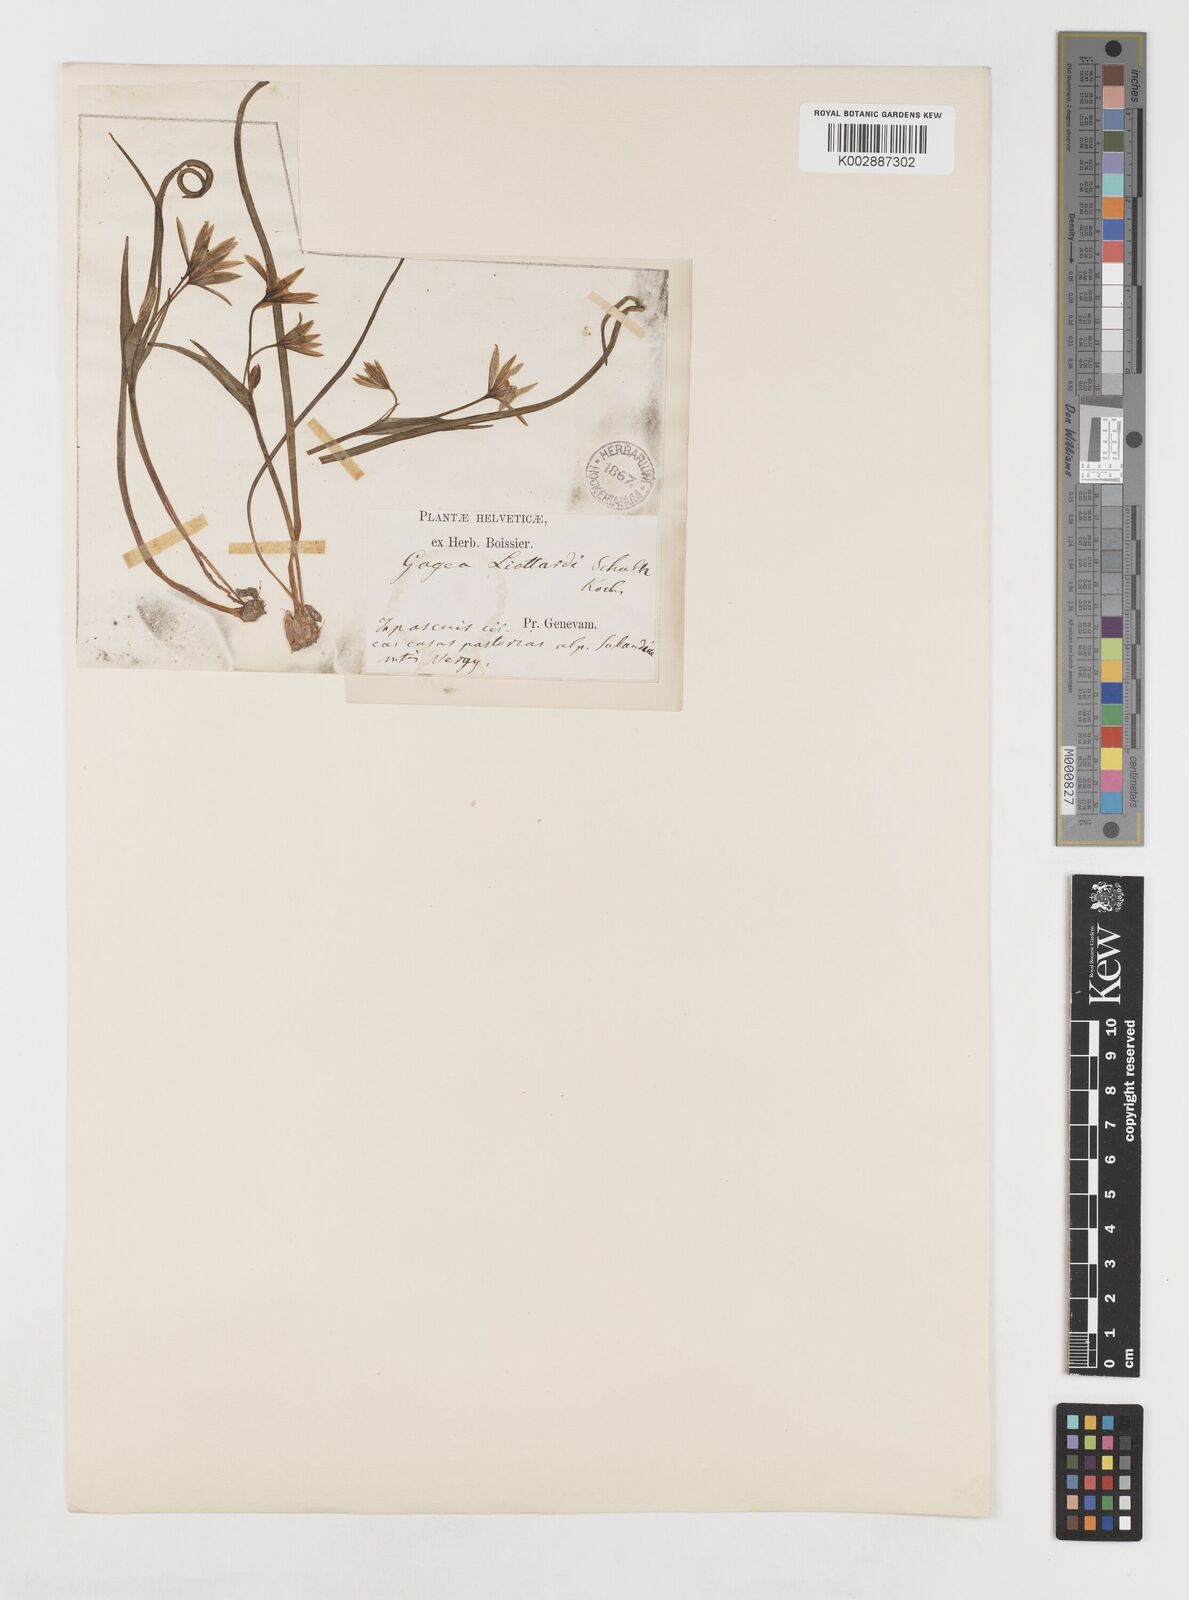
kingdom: Plantae
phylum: Tracheophyta
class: Liliopsida
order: Liliales
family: Liliaceae
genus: Gagea
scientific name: Gagea bohemica
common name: Early star-of-bethlehem
